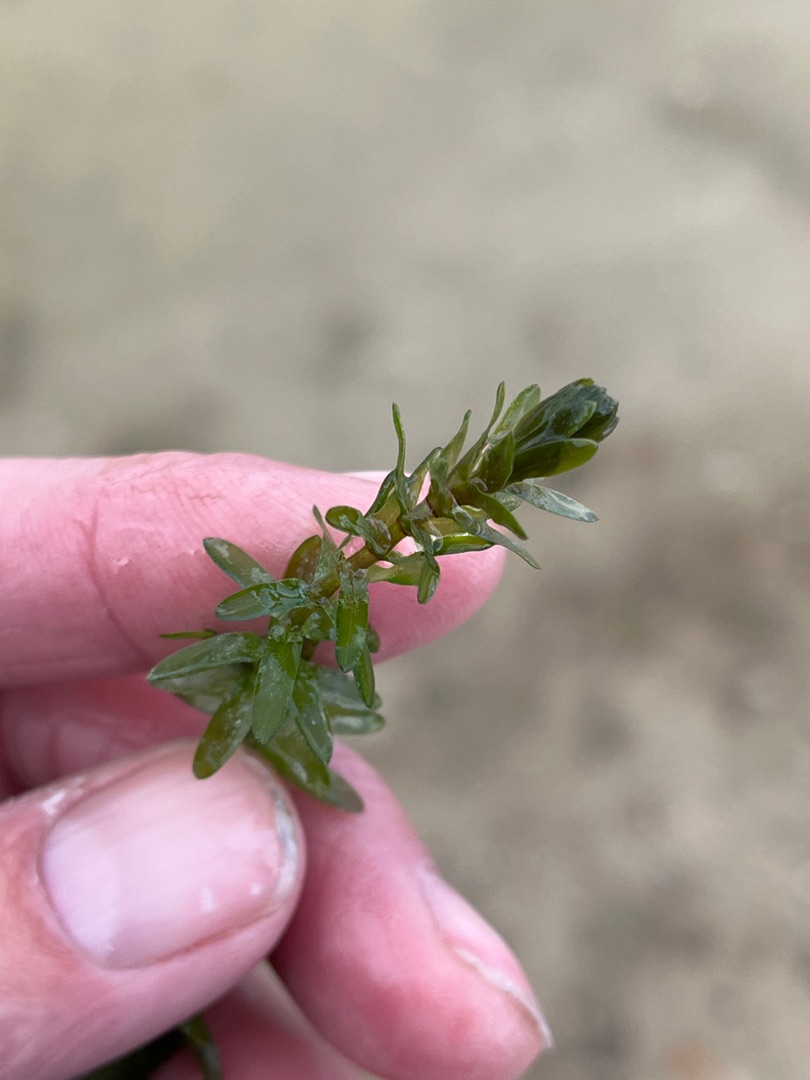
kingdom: Plantae
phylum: Tracheophyta
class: Liliopsida
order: Alismatales
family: Hydrocharitaceae
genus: Elodea
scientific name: Elodea canadensis
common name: Vandpest
